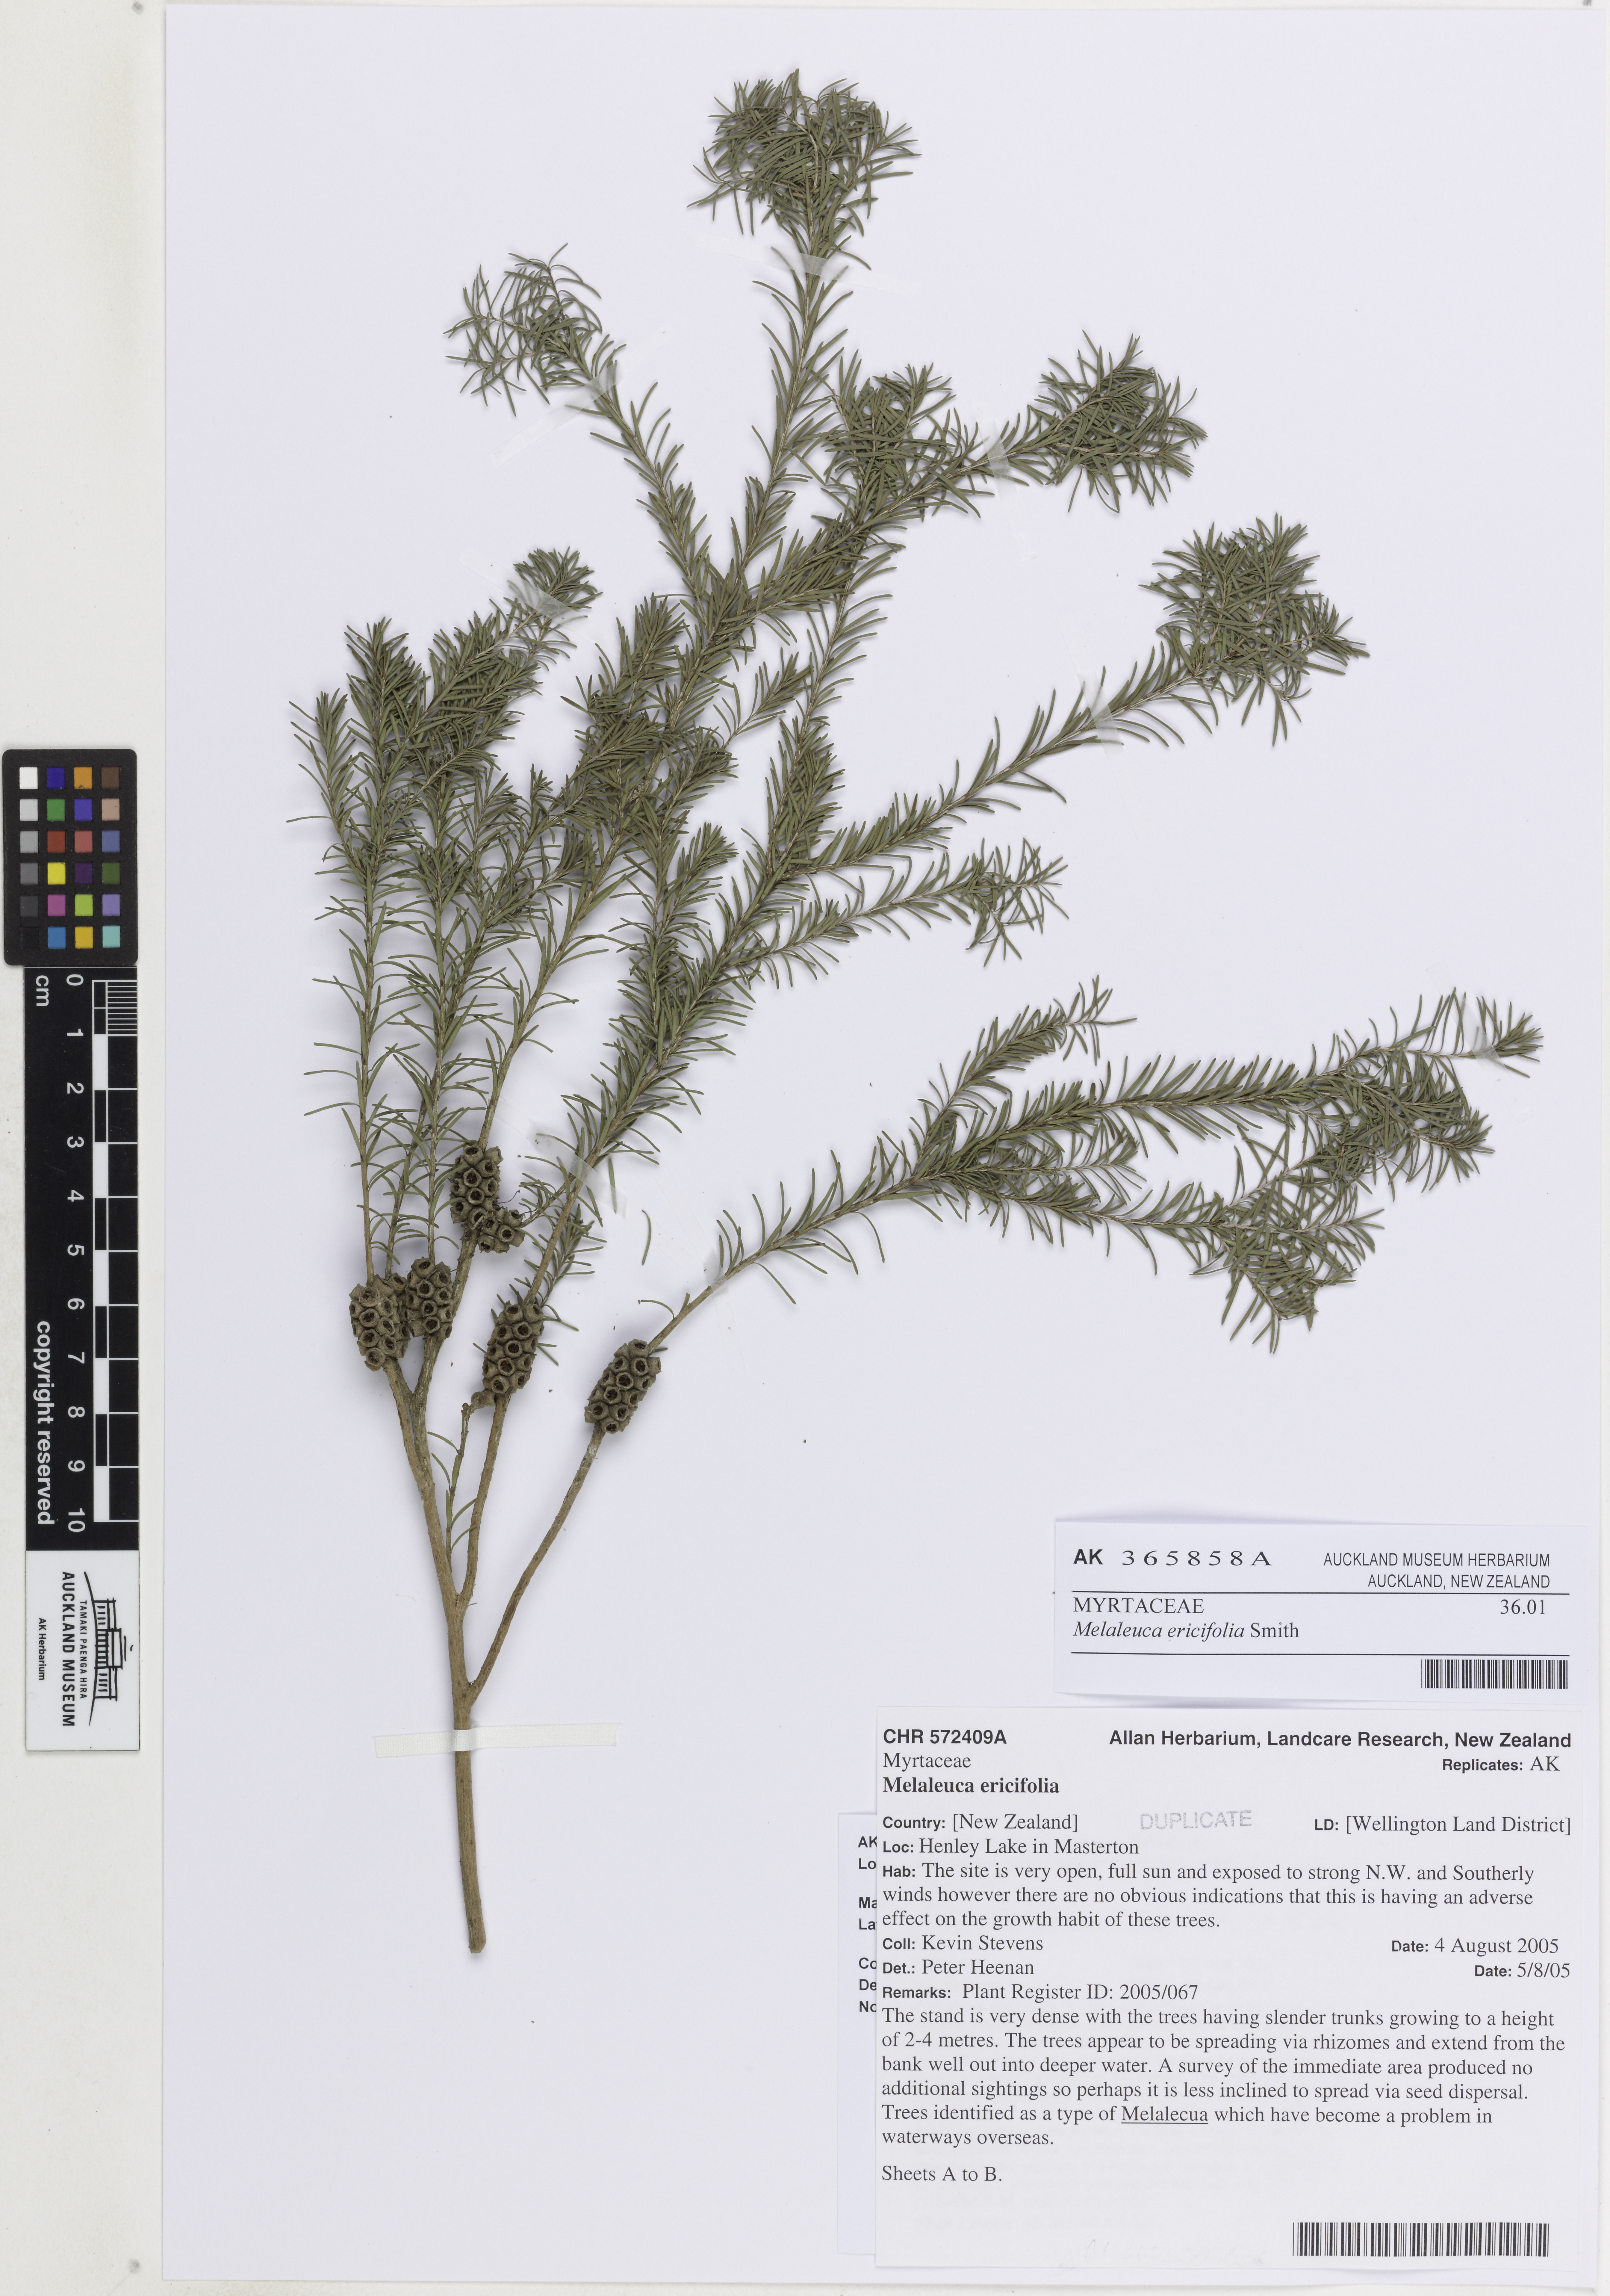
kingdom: Plantae
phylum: Tracheophyta
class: Magnoliopsida
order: Myrtales
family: Myrtaceae
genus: Melaleuca
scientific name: Melaleuca ericifolia
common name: Paperbark teatree
